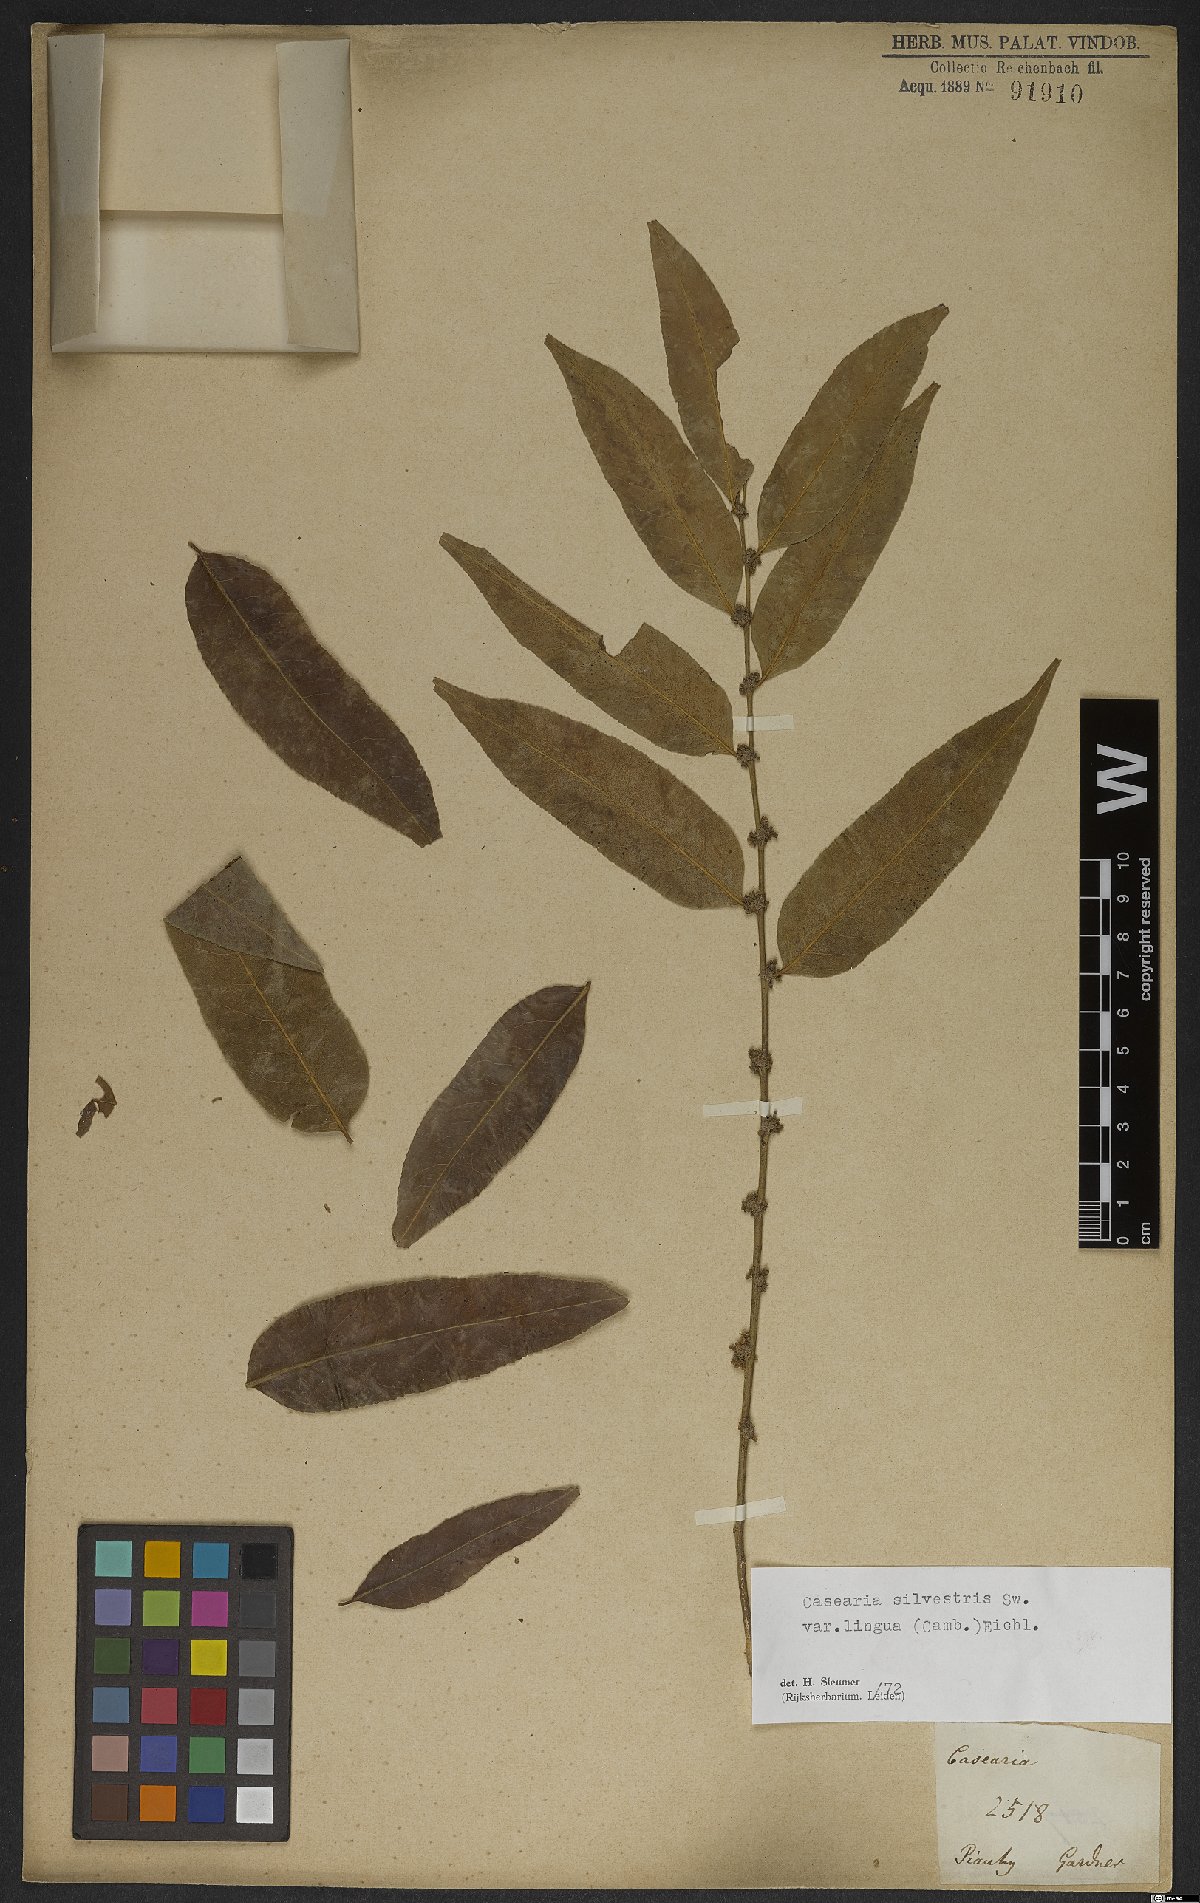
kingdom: Plantae
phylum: Tracheophyta
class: Magnoliopsida
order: Malpighiales
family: Salicaceae
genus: Casearia
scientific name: Casearia sylvestris
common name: Wild sage
